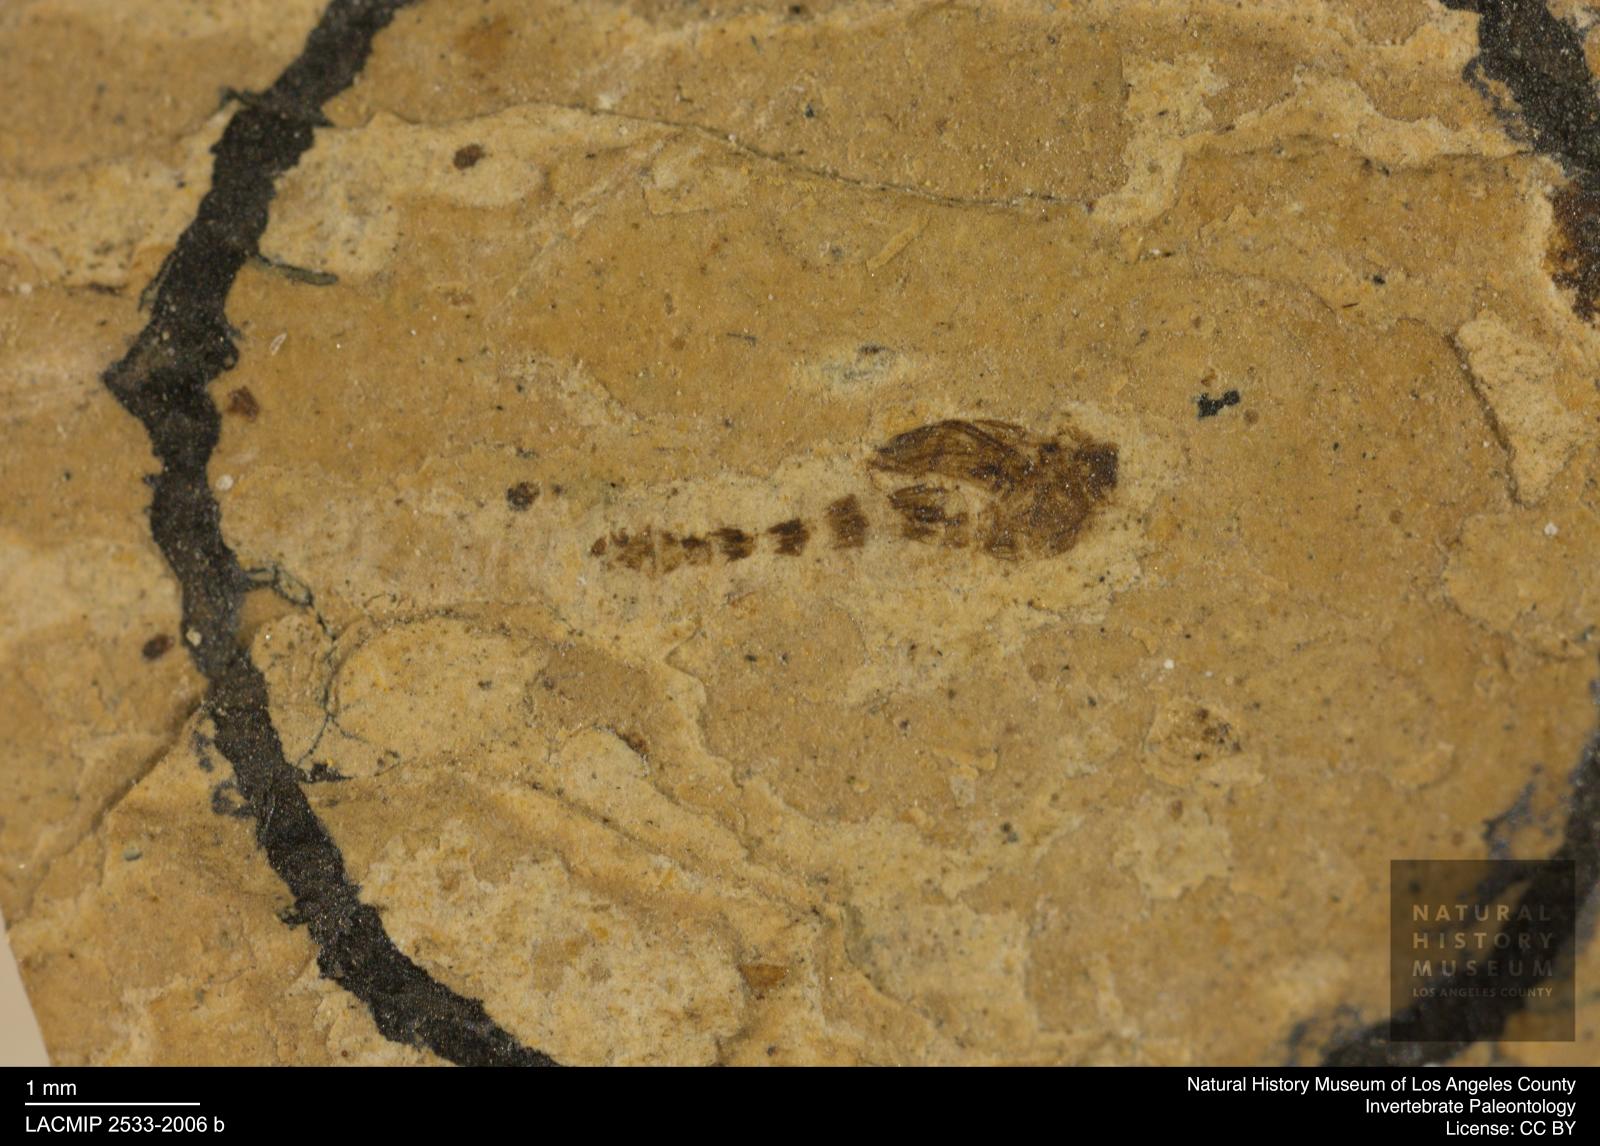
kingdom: Animalia
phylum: Arthropoda
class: Insecta
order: Diptera
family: Ceratopogonidae
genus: Ceratopogon
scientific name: Ceratopogon
